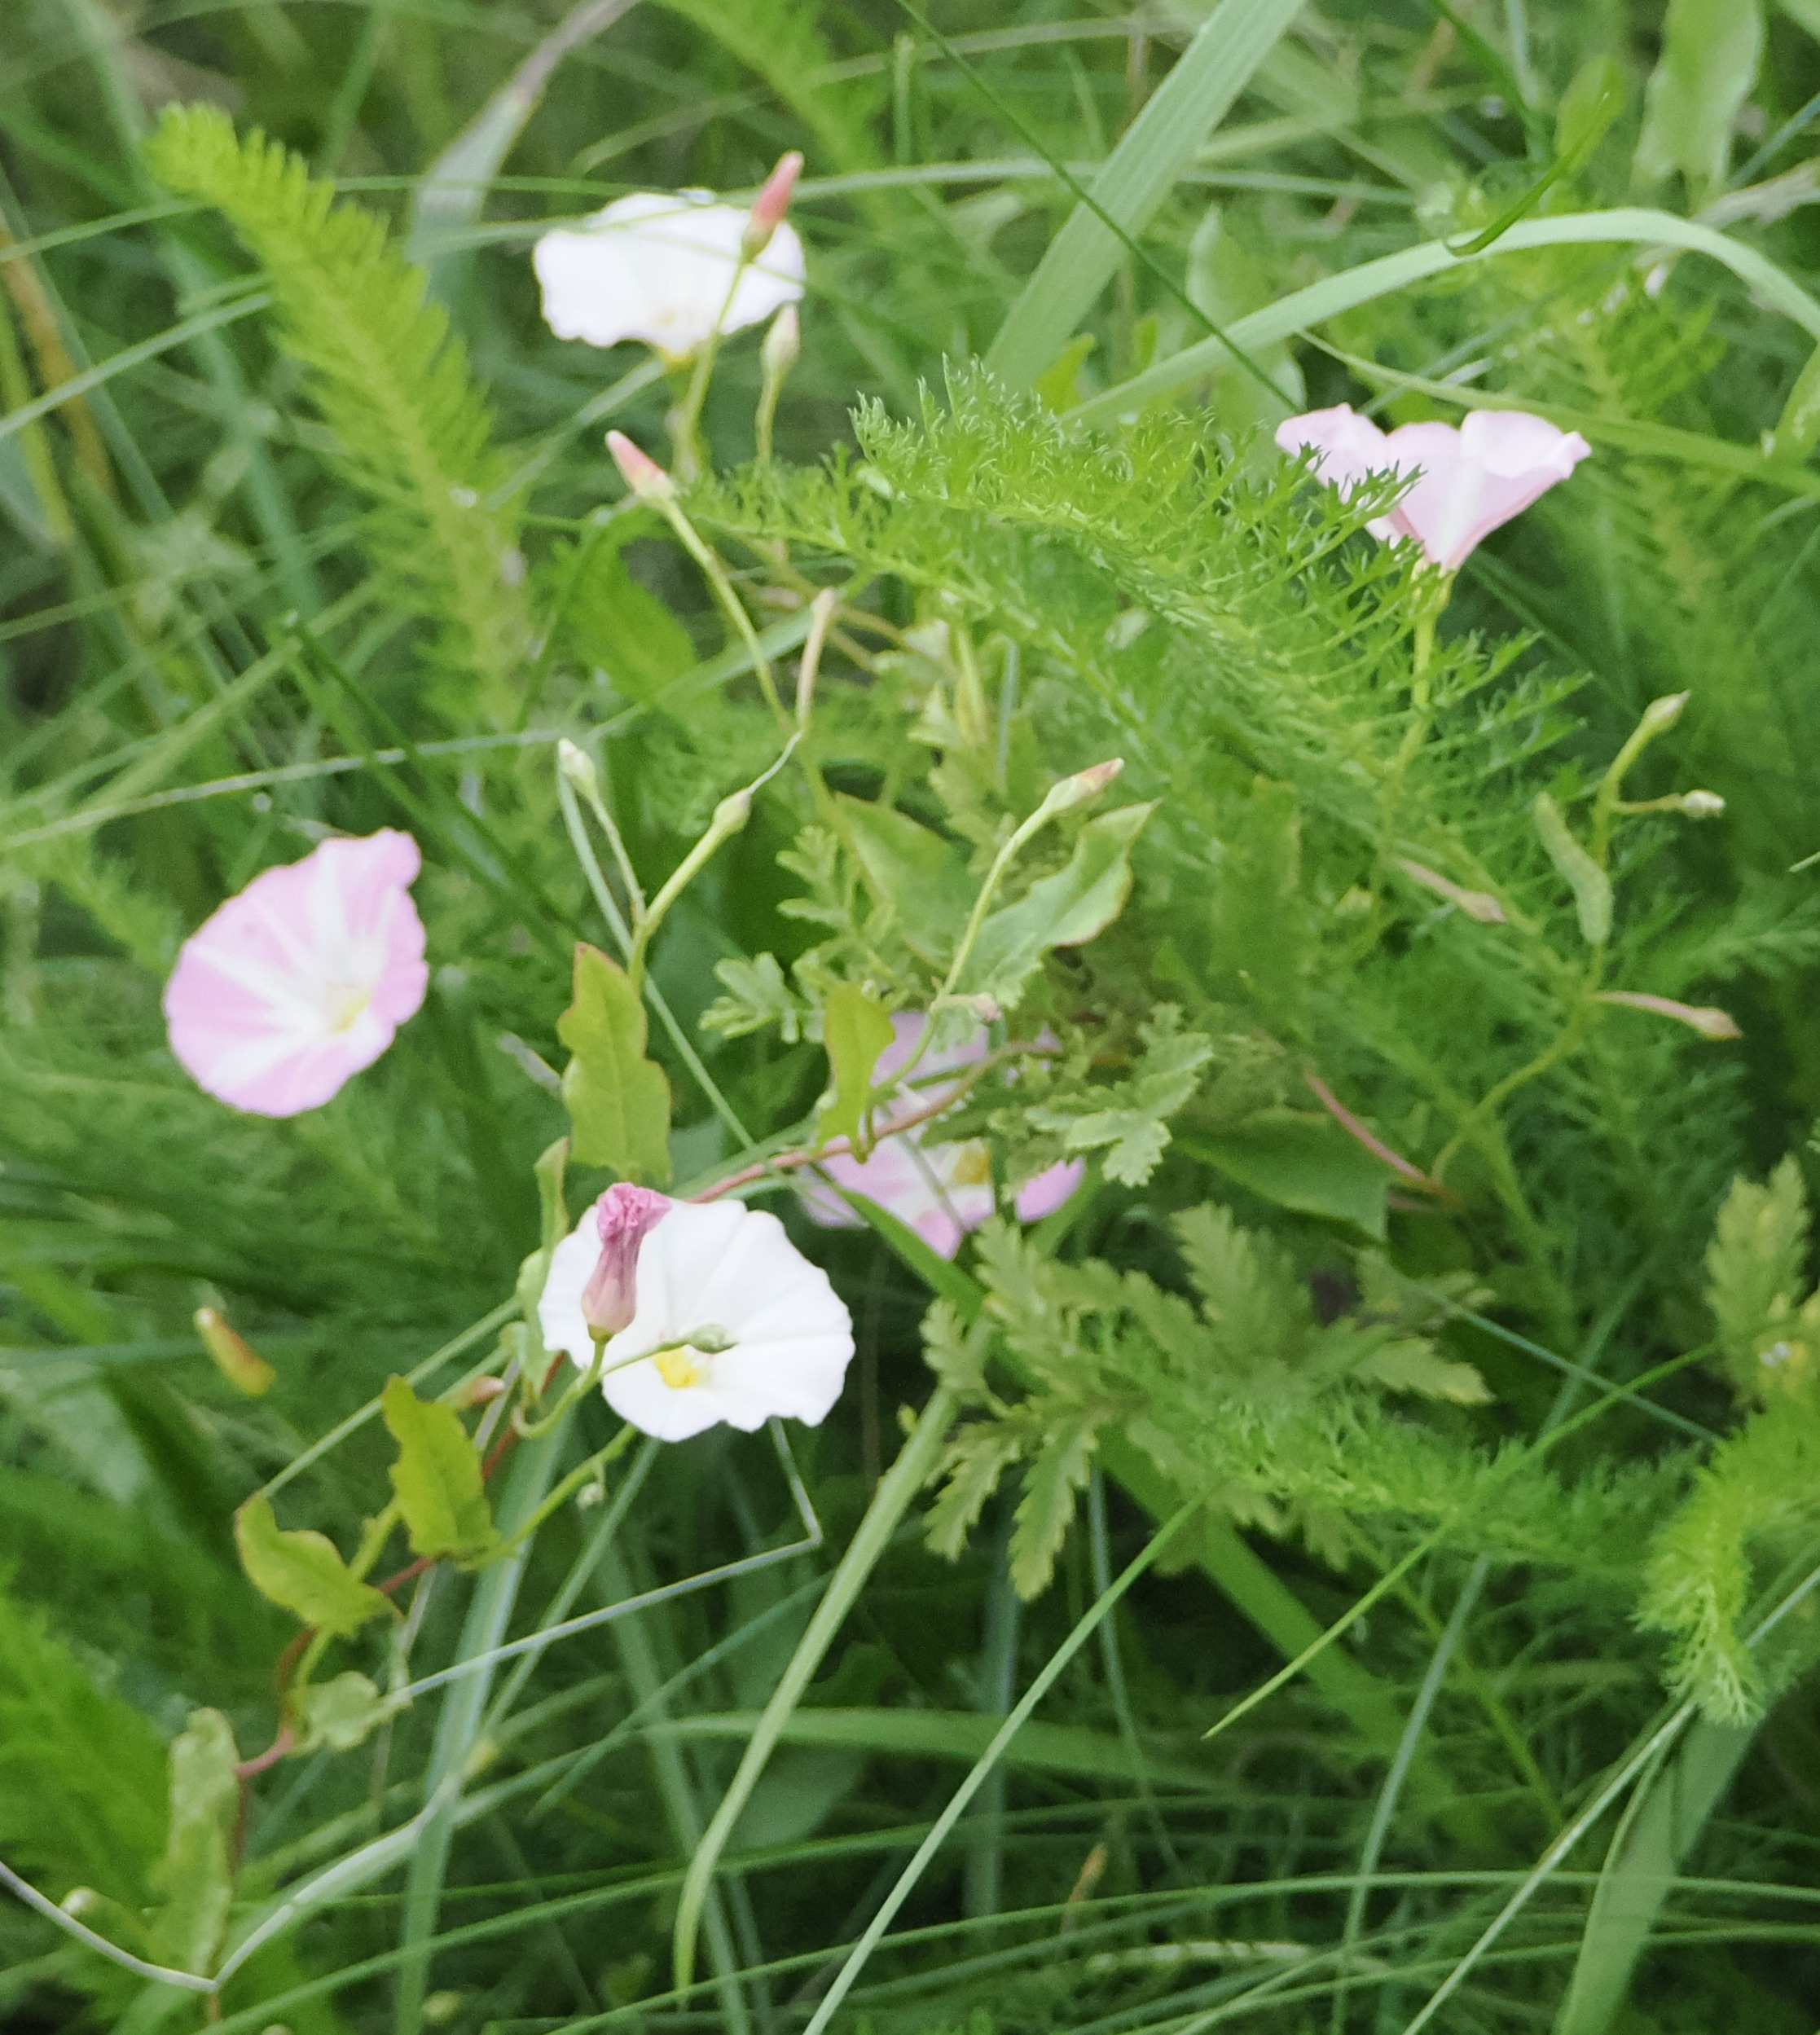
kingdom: Plantae
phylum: Tracheophyta
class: Magnoliopsida
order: Solanales
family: Convolvulaceae
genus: Convolvulus
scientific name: Convolvulus arvensis
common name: Ager-snerle
